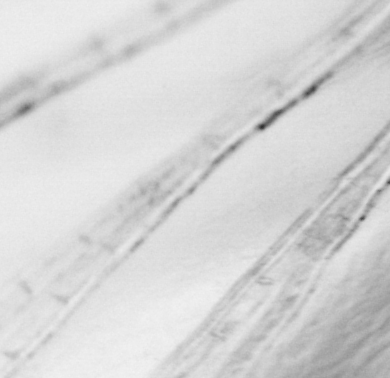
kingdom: Animalia
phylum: Chordata
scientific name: Chordata
